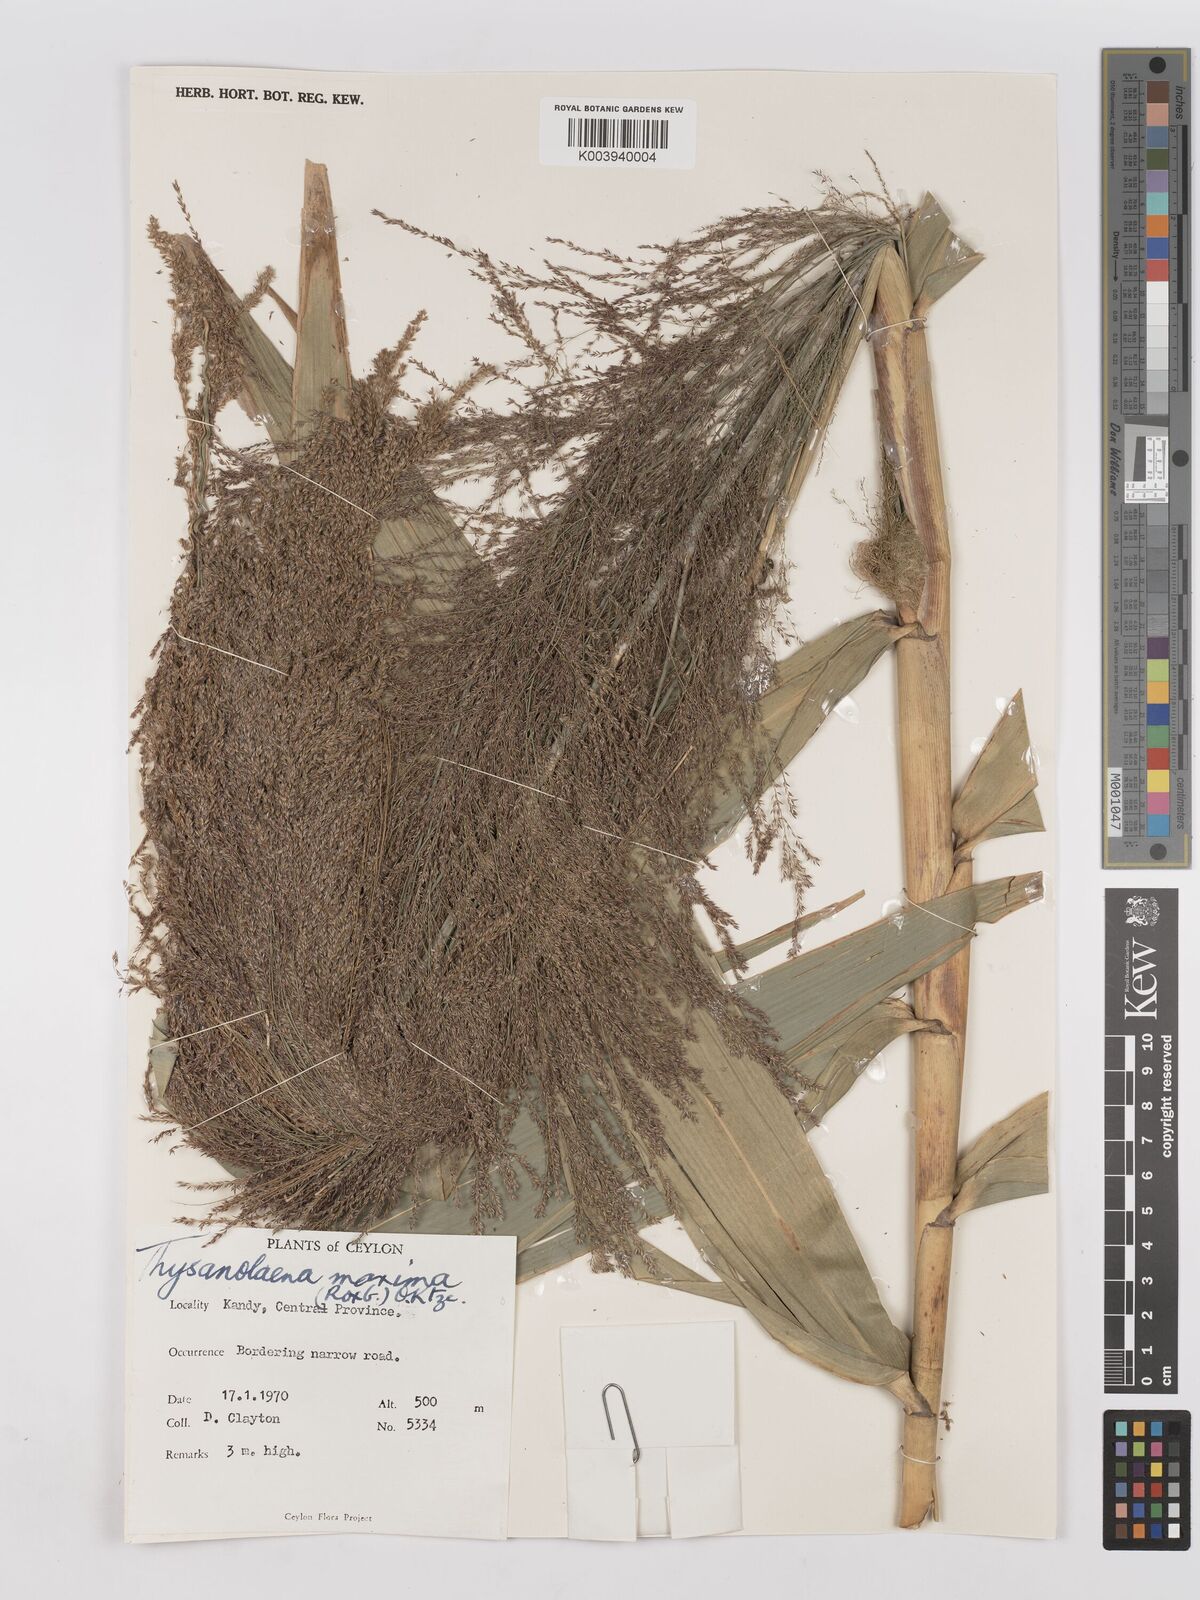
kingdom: Plantae
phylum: Tracheophyta
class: Liliopsida
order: Poales
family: Poaceae
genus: Thysanolaena
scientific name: Thysanolaena latifolia
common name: Tiger grass
